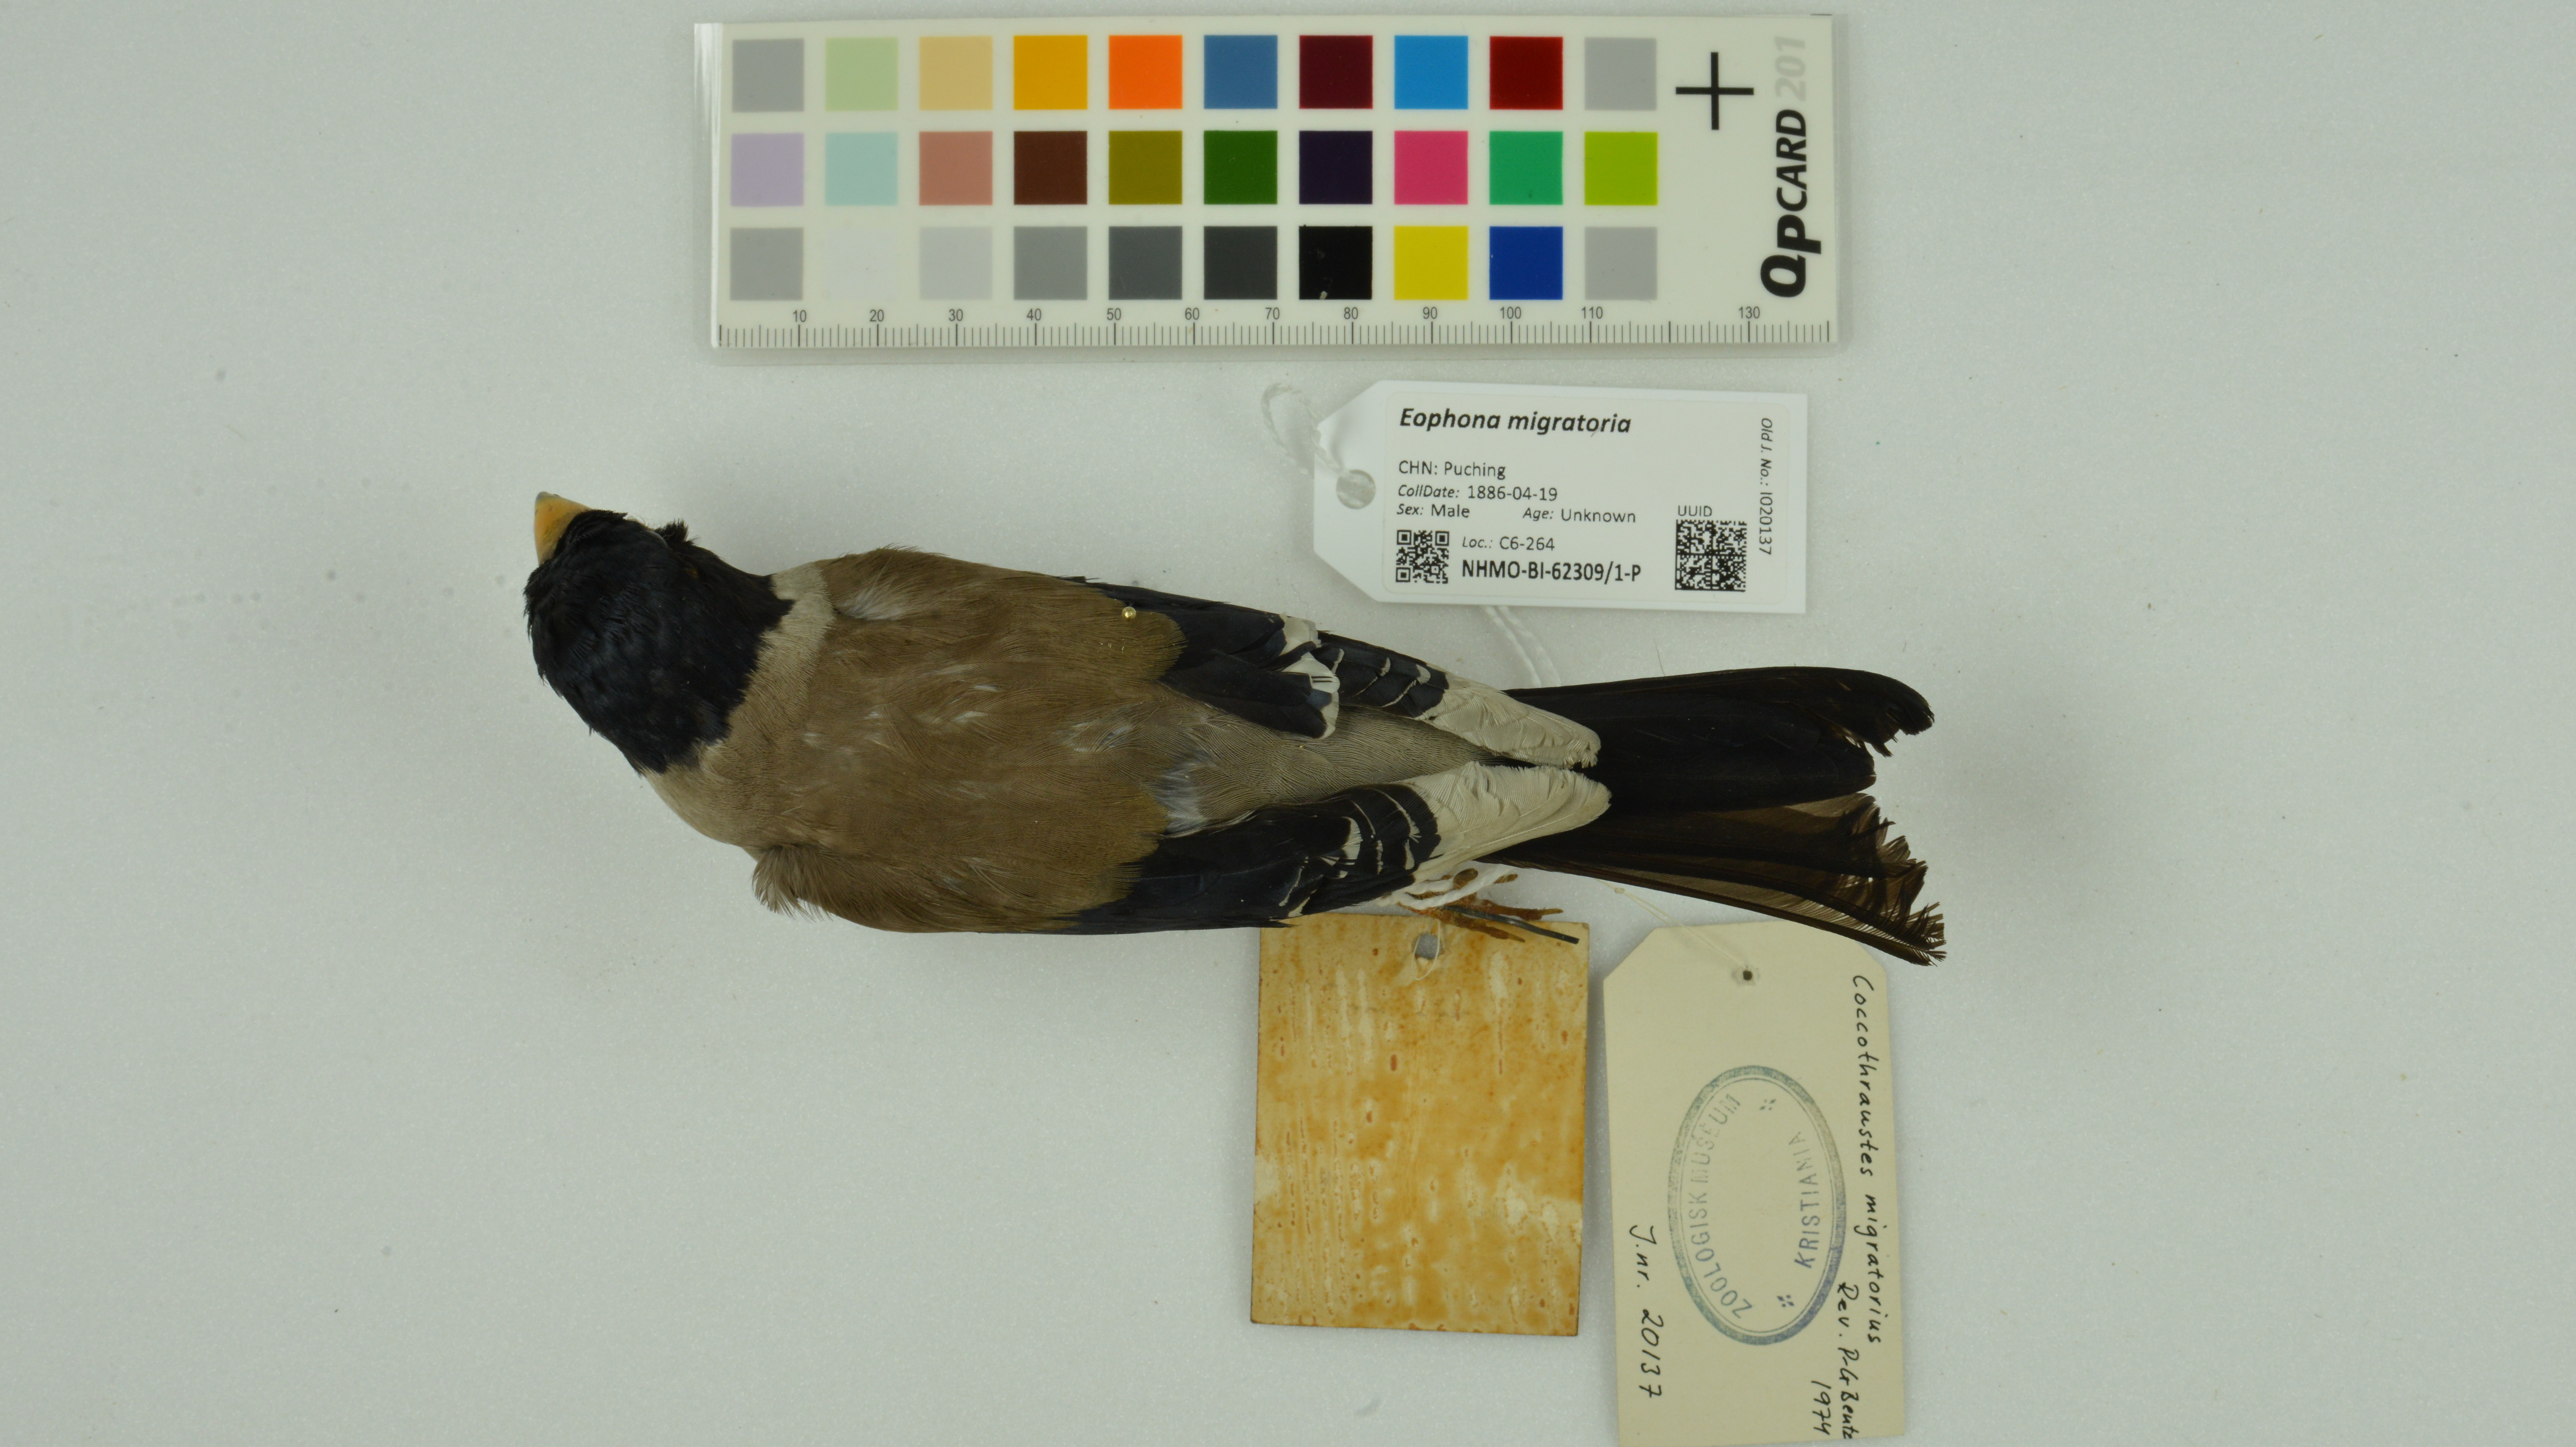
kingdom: Animalia
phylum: Chordata
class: Aves
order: Passeriformes
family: Fringillidae
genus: Eophona
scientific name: Eophona migratoria
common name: Yellow-billed grosbeak
